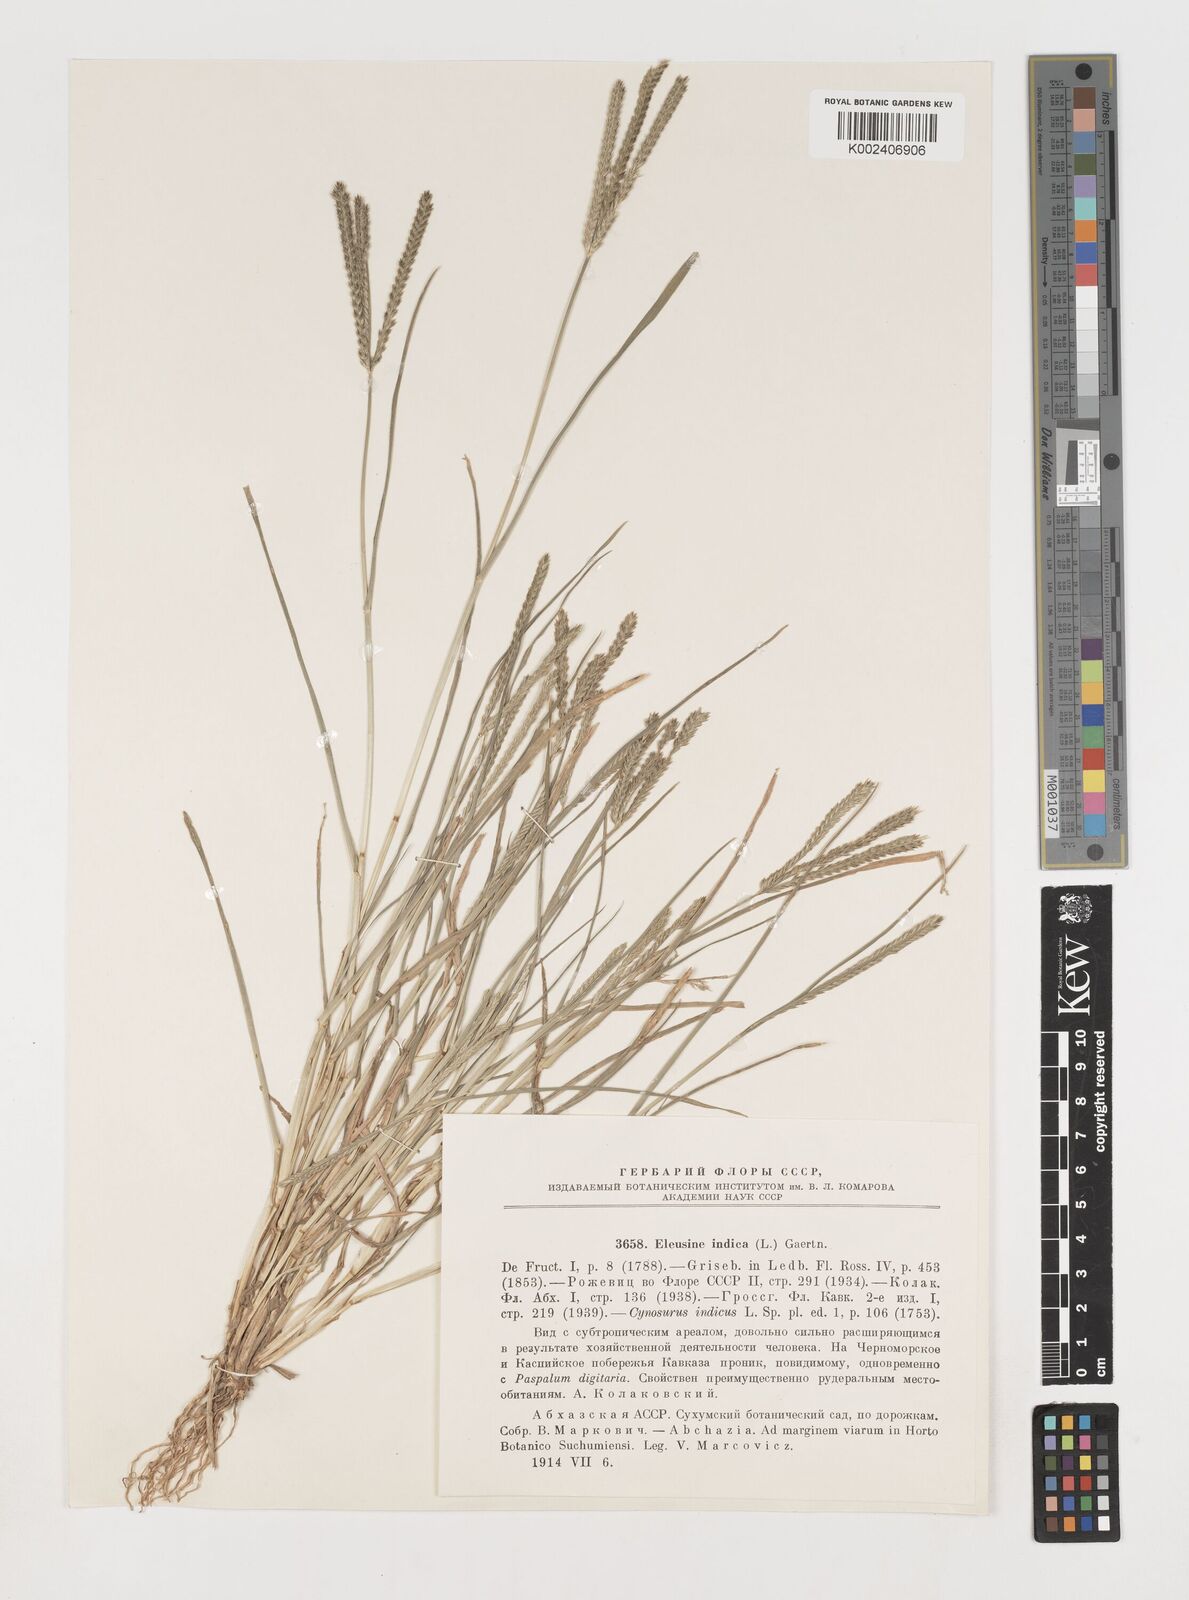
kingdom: Plantae
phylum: Tracheophyta
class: Liliopsida
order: Poales
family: Poaceae
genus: Eleusine
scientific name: Eleusine indica
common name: Yard-grass
